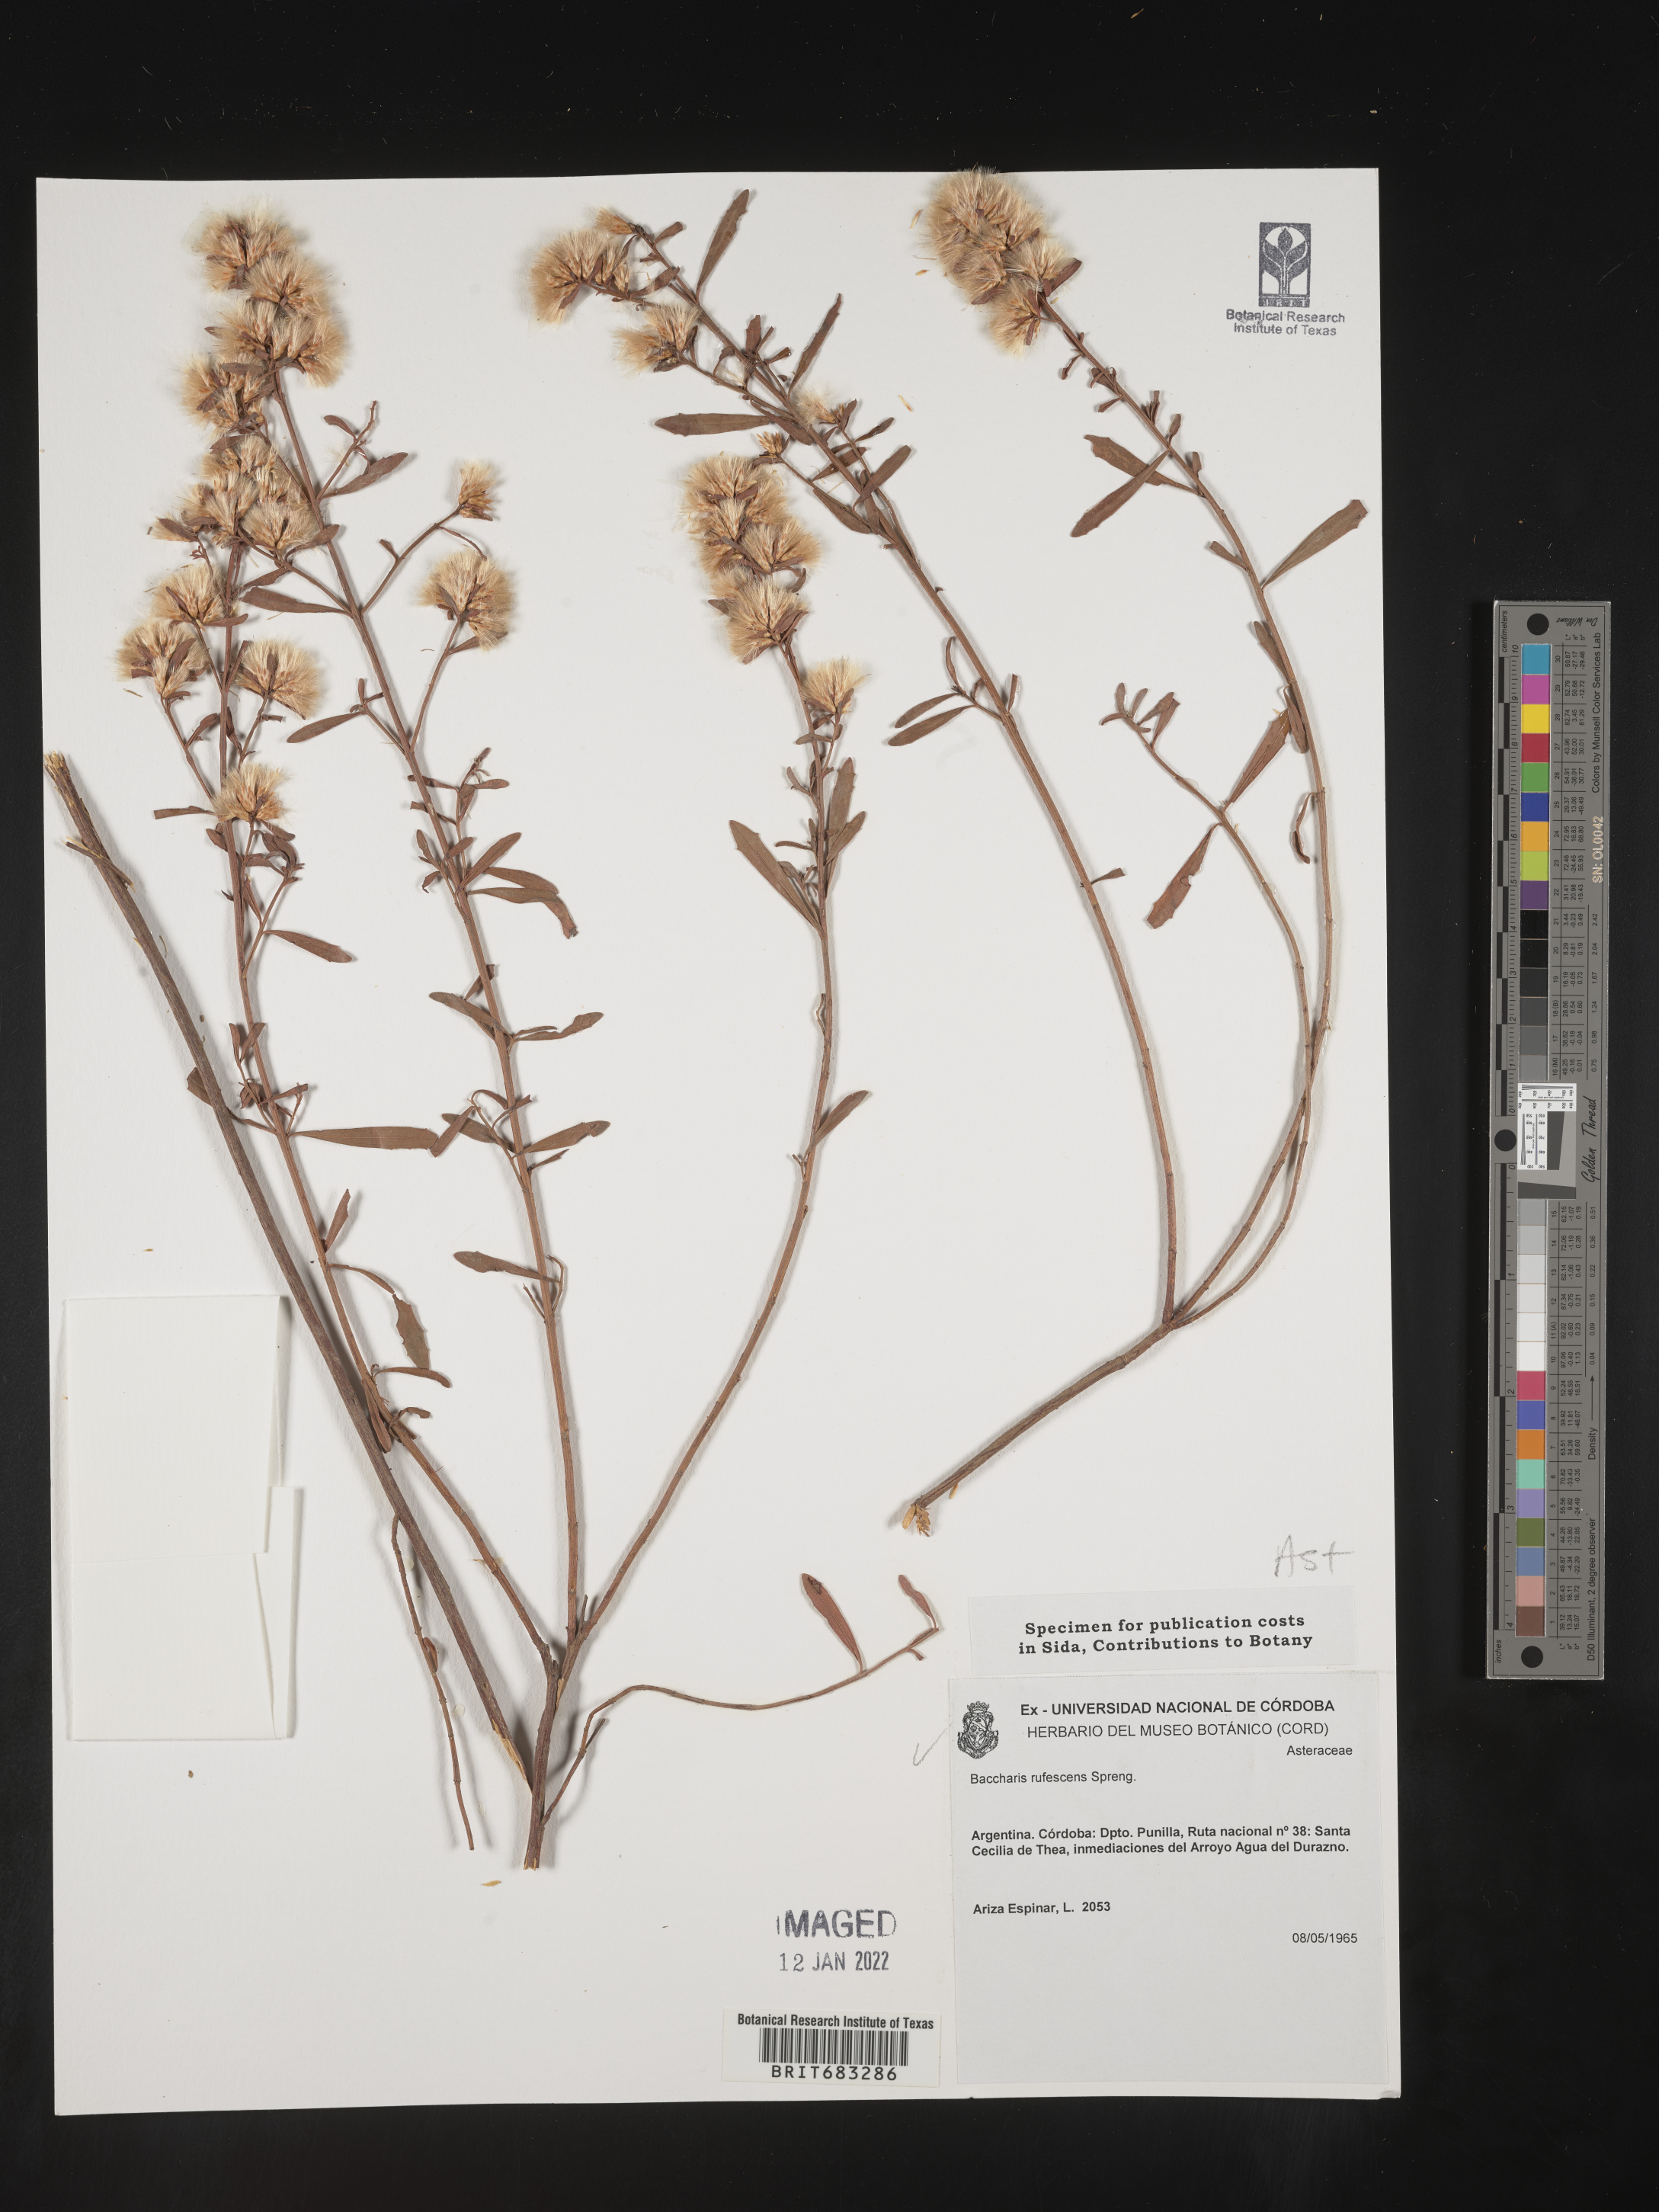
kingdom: Plantae
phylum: Tracheophyta
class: Magnoliopsida
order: Asterales
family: Asteraceae
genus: Baccharis
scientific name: Baccharis
